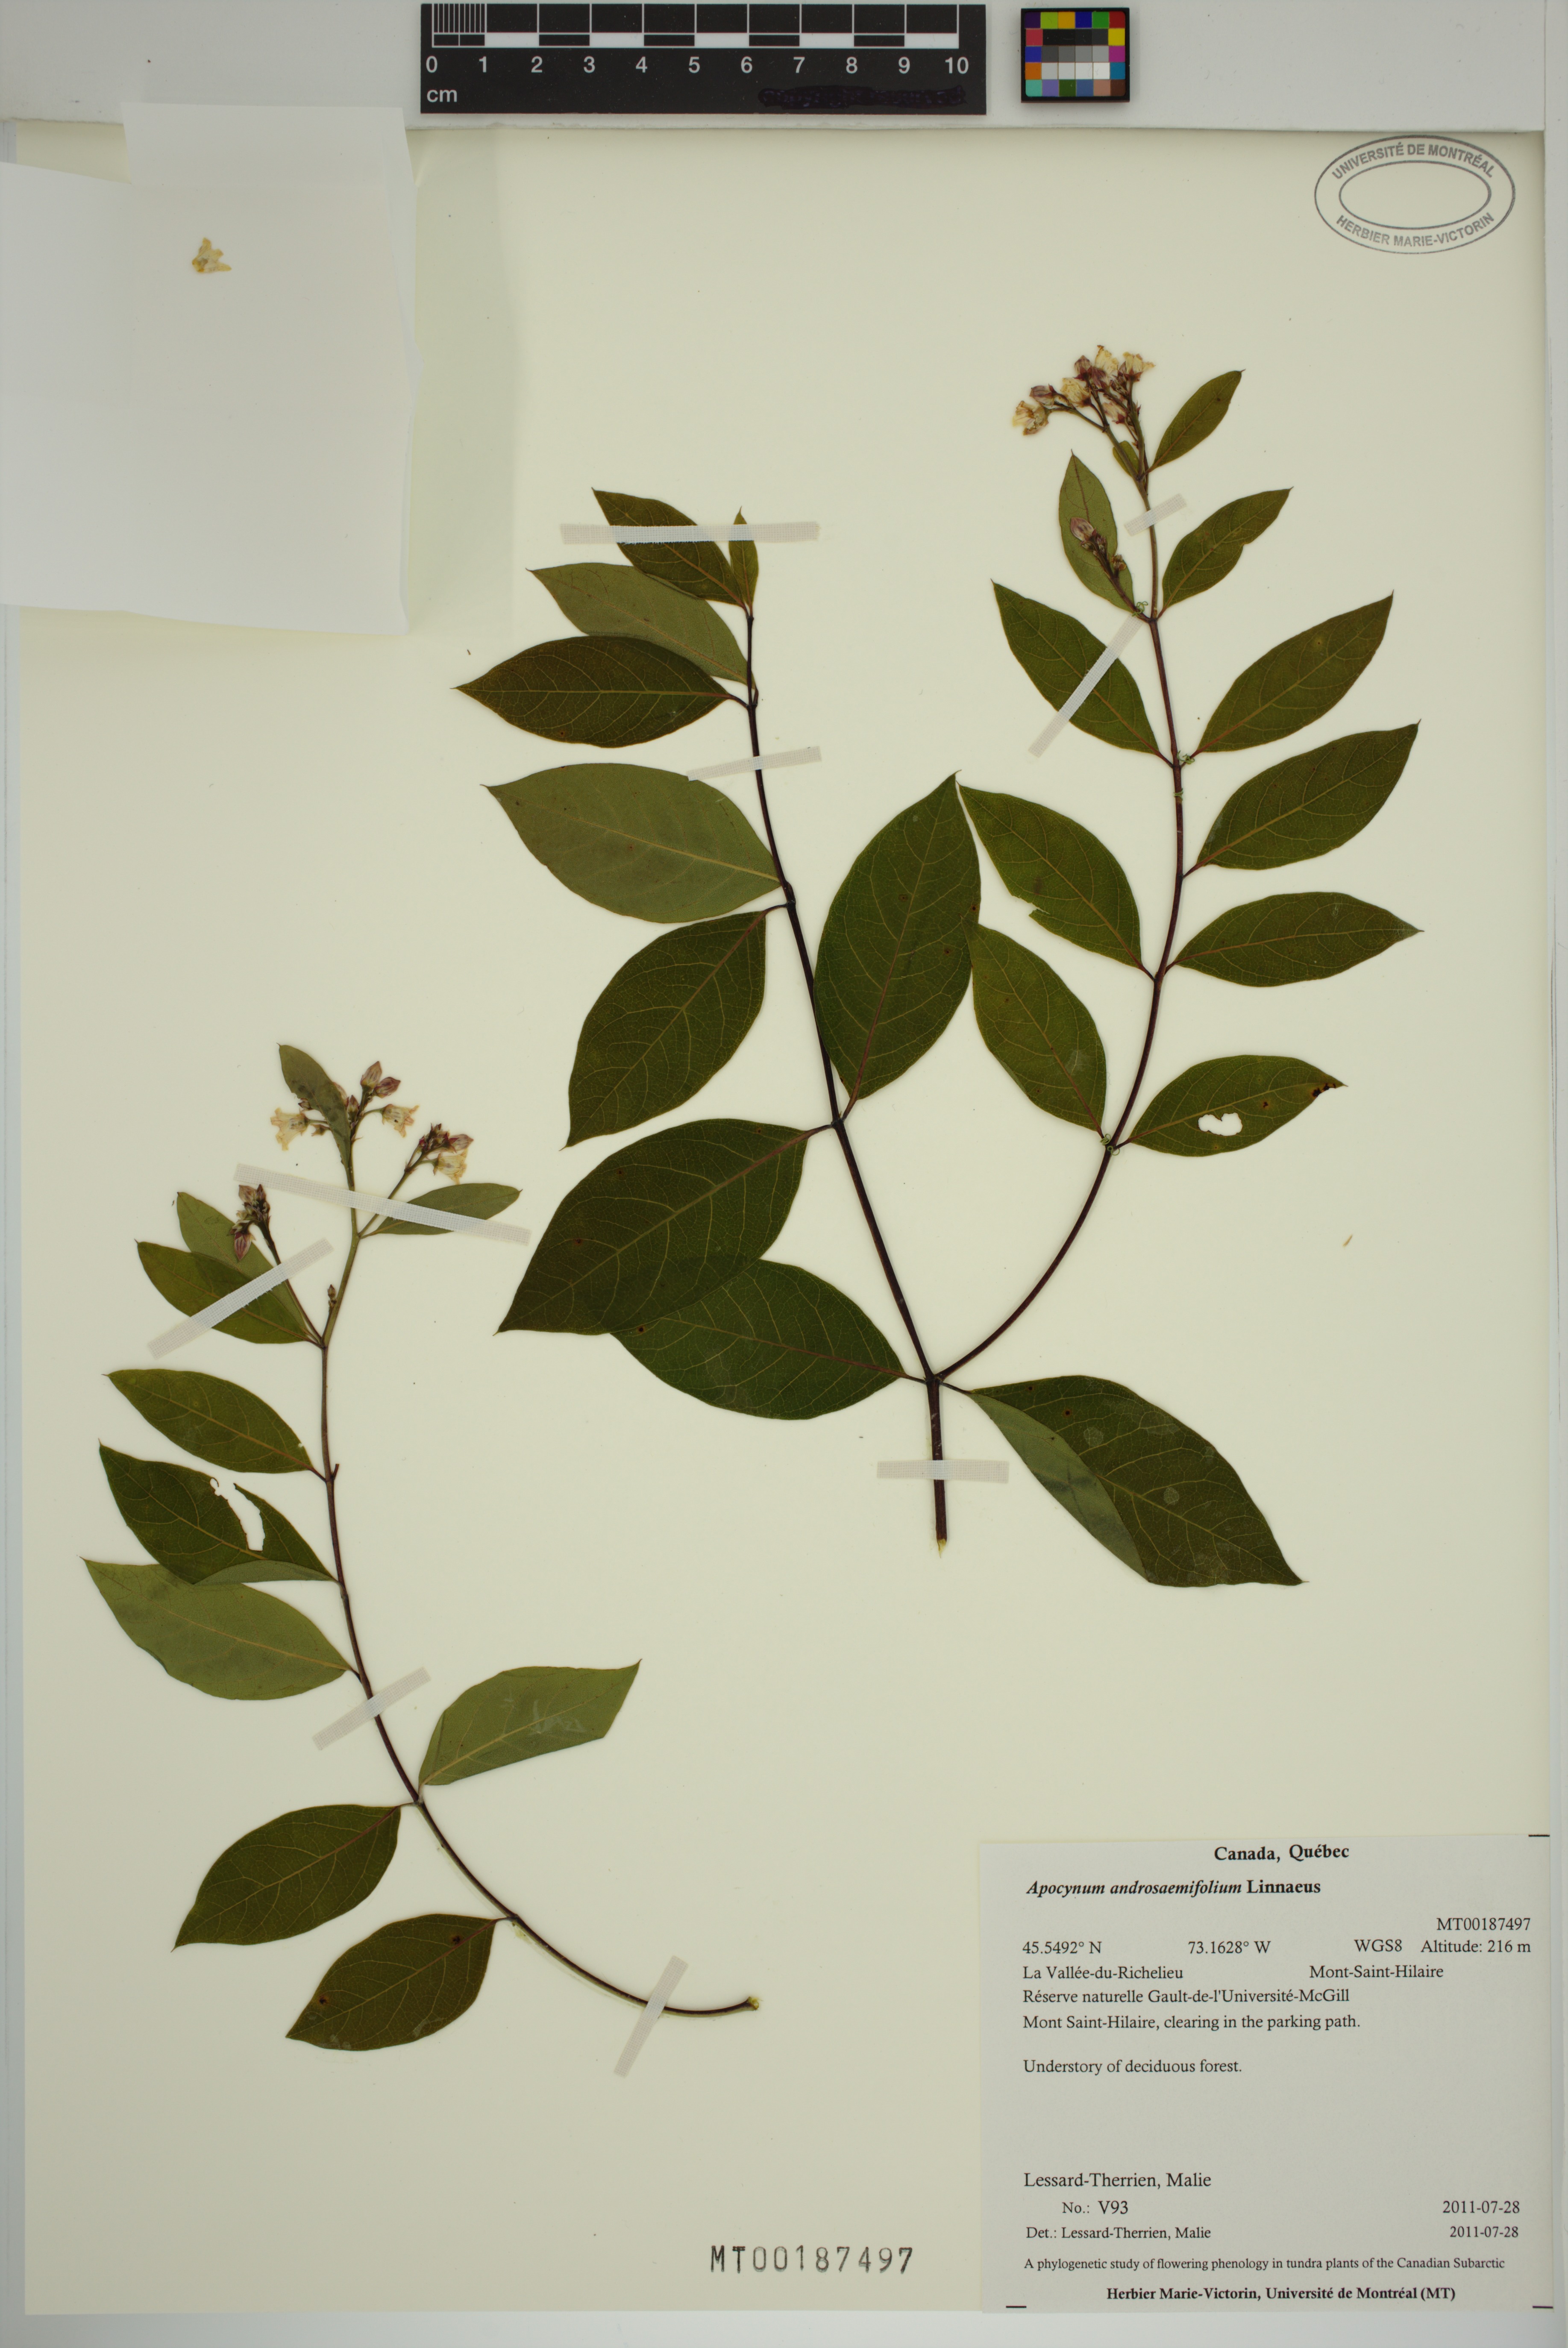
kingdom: Plantae
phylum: Tracheophyta
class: Magnoliopsida
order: Gentianales
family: Apocynaceae
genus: Apocynum
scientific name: Apocynum androsaemifolium
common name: Spreading dogbane
